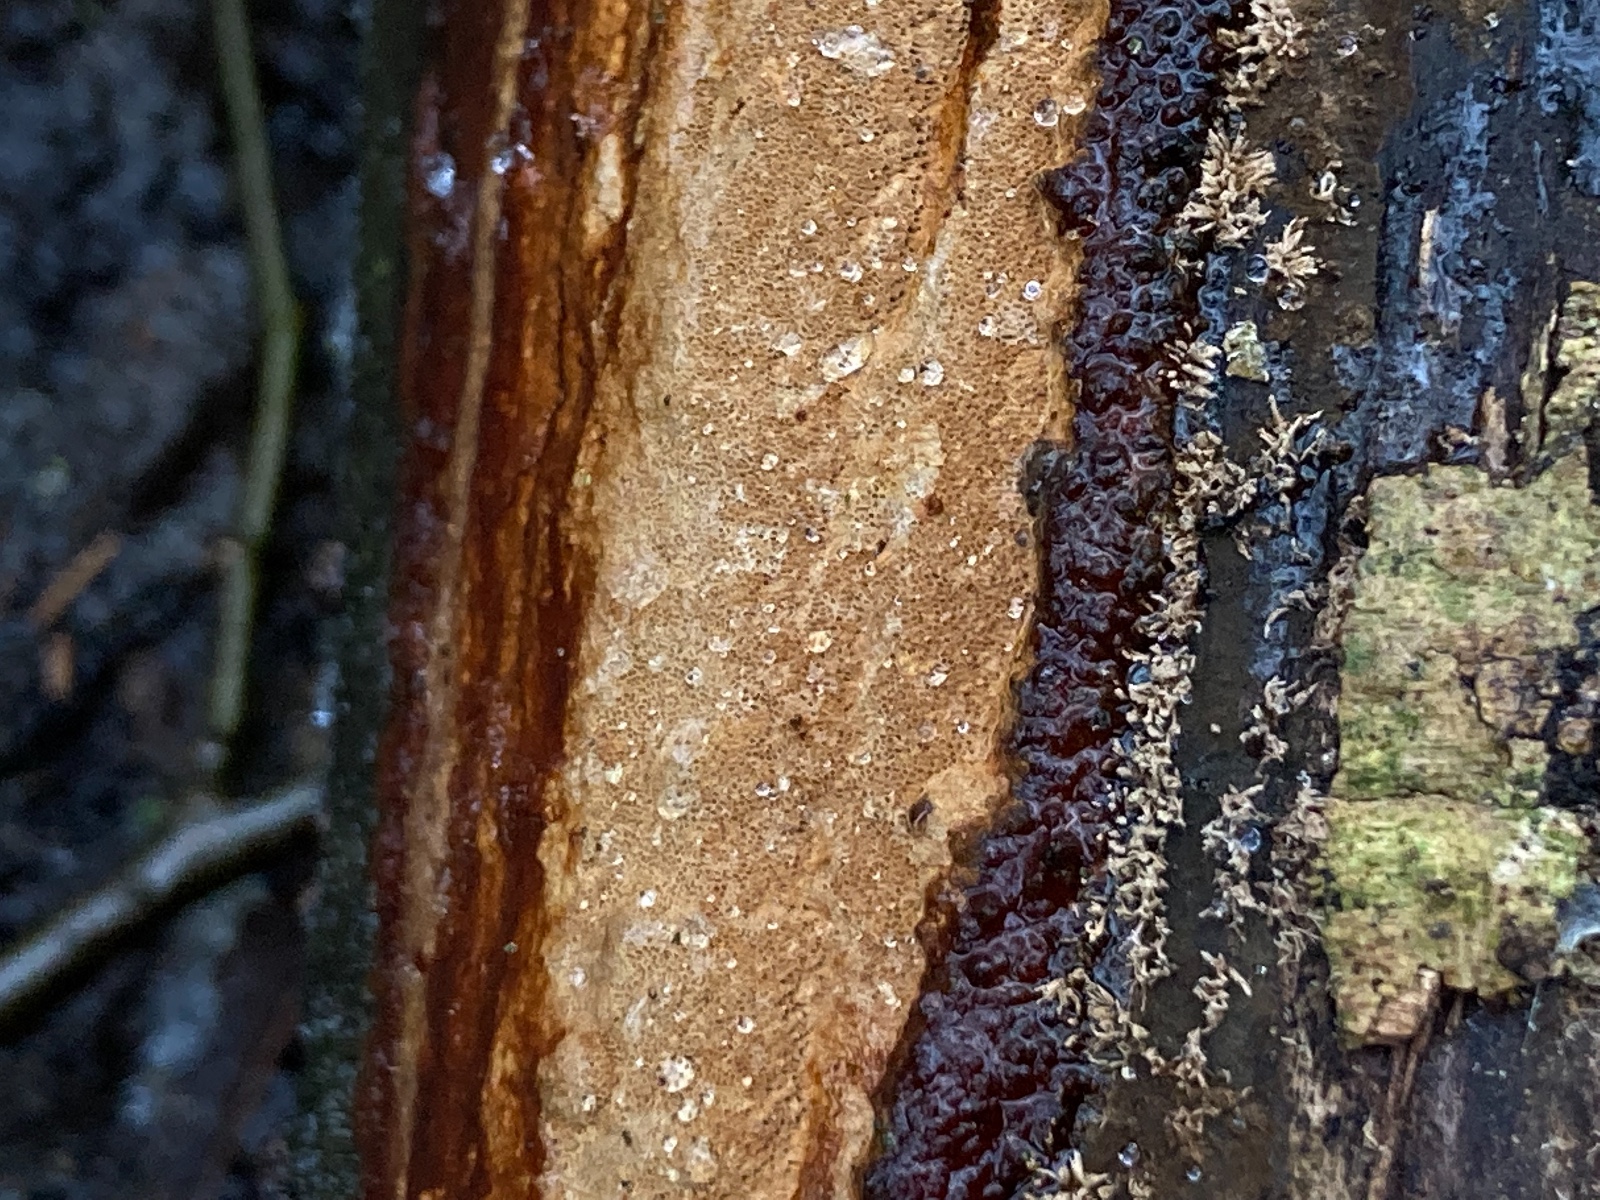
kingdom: Fungi
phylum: Basidiomycota
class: Agaricomycetes
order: Hymenochaetales
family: Hymenochaetaceae
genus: Fuscoporia
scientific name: Fuscoporia ferrea
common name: skorpe-ildporesvamp
